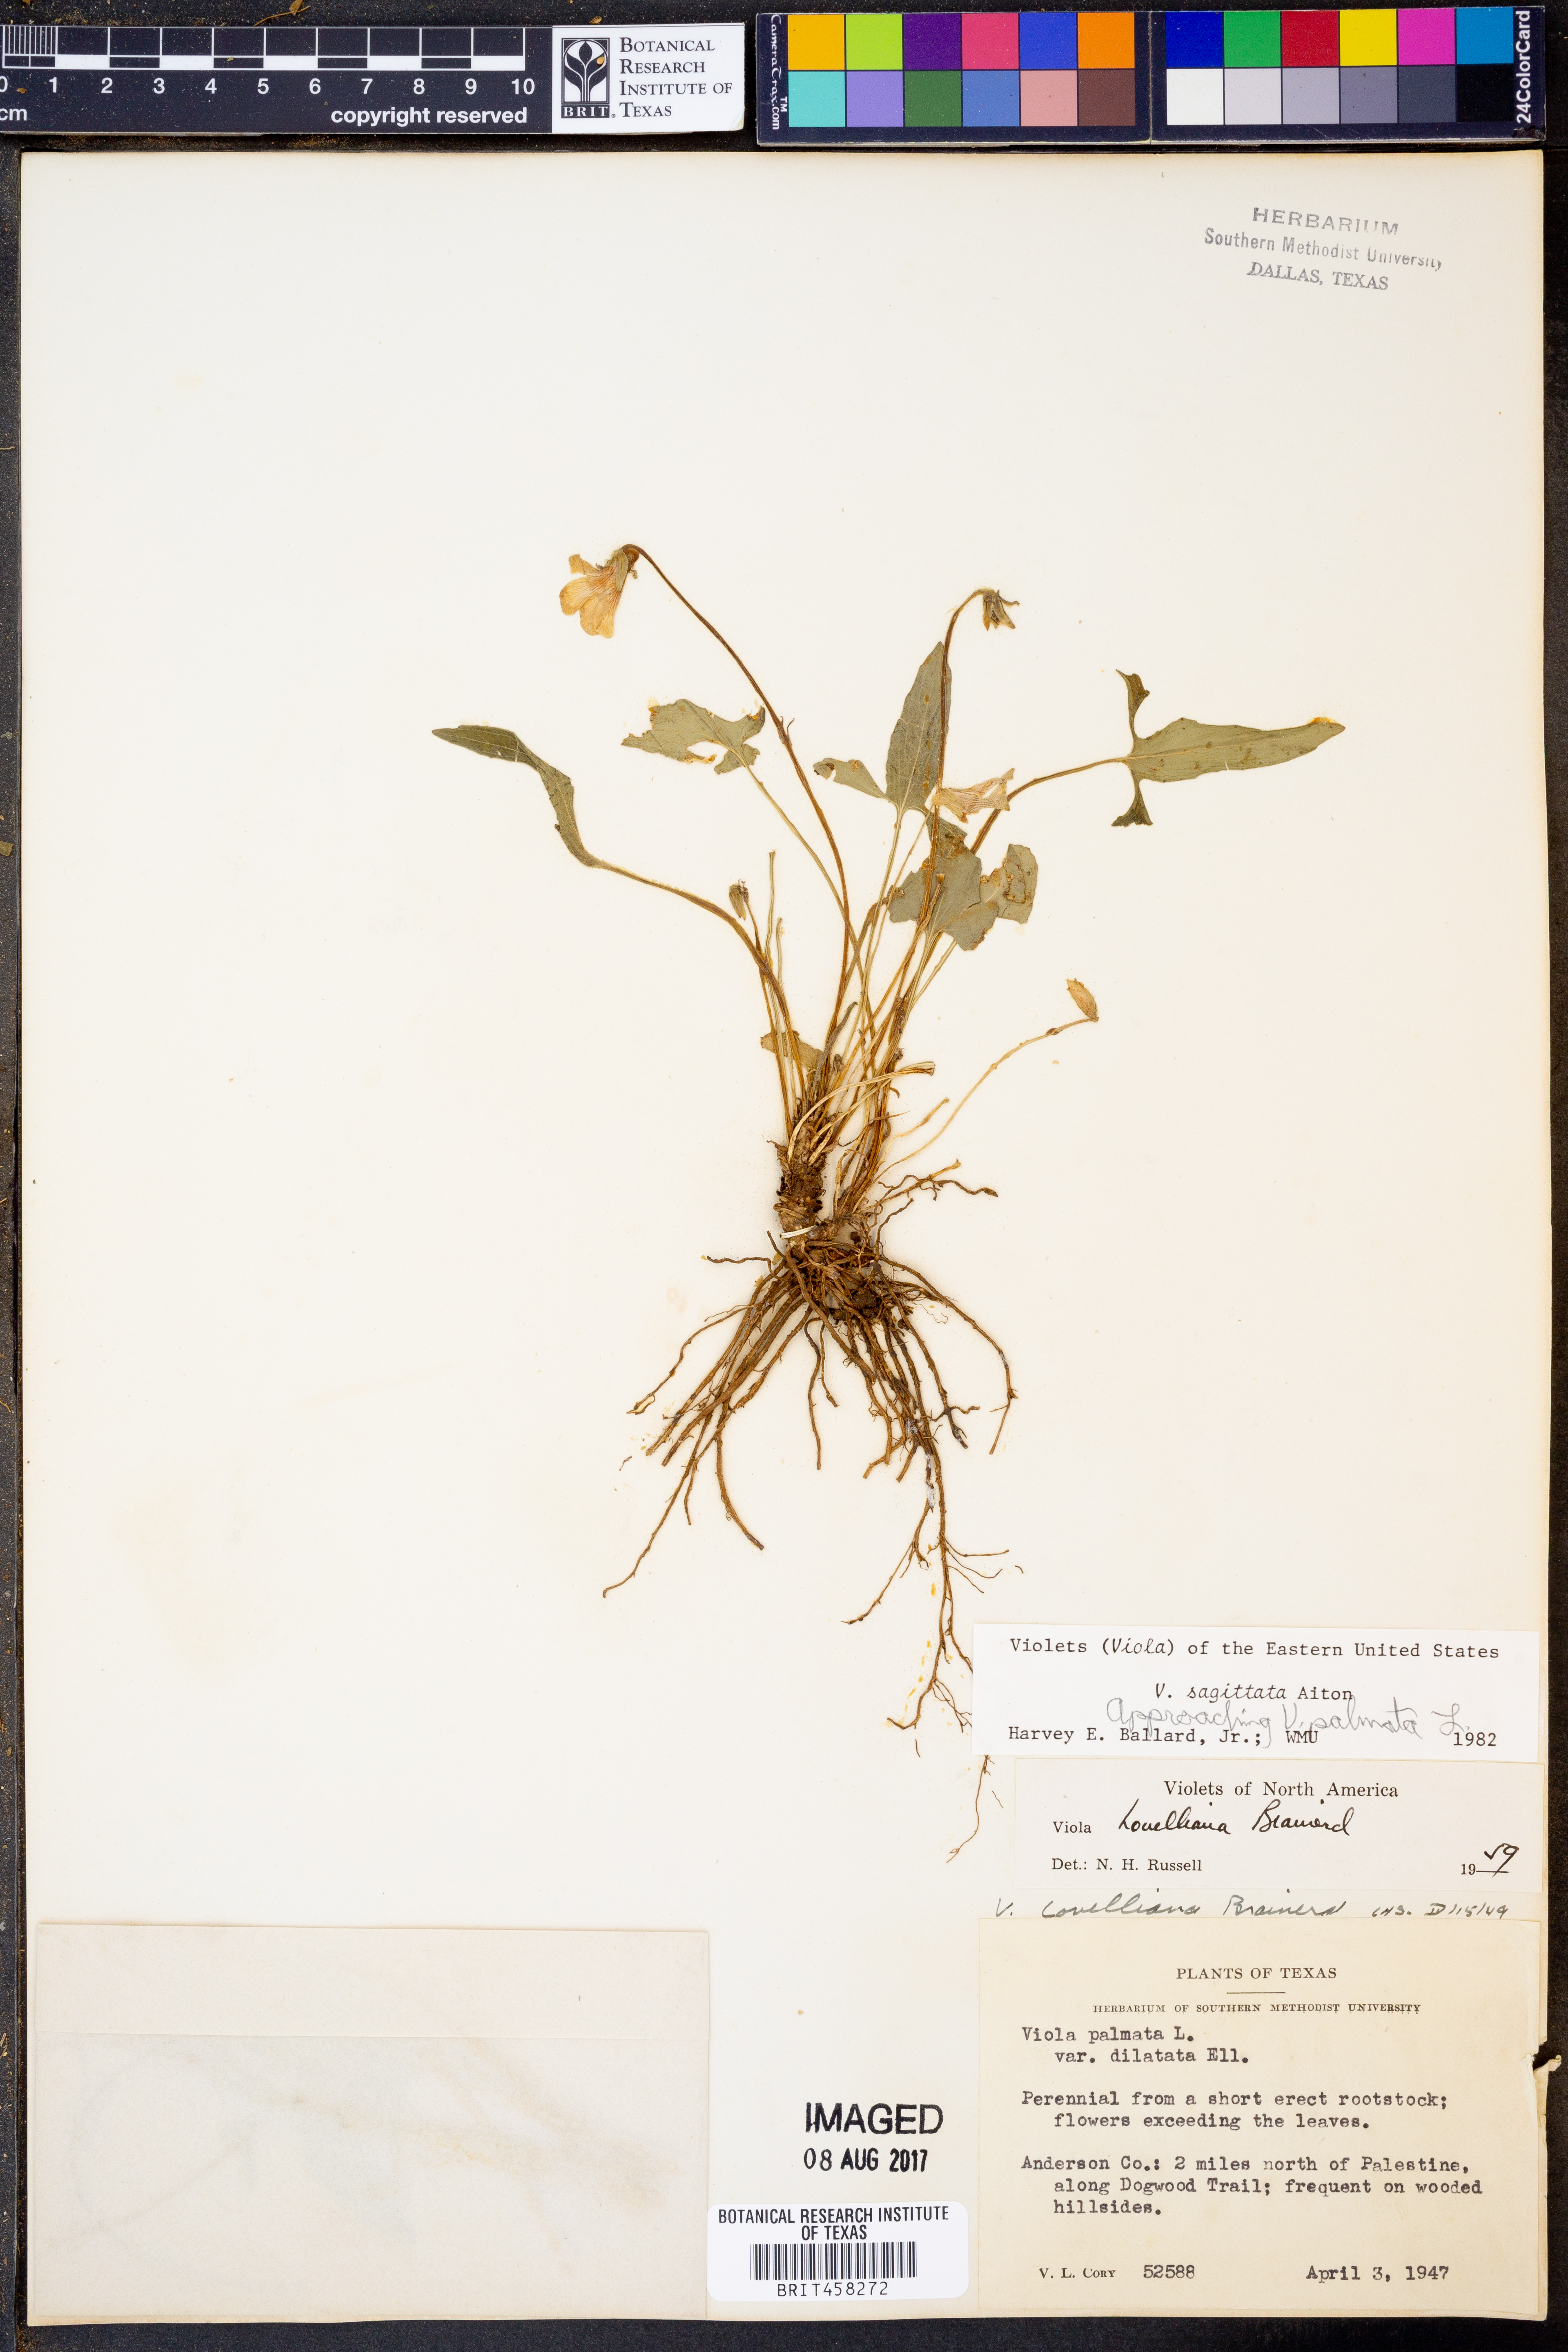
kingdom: Plantae
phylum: Tracheophyta
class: Magnoliopsida
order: Malpighiales
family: Violaceae
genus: Viola
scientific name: Viola sagittata
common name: Arrowhead violet
